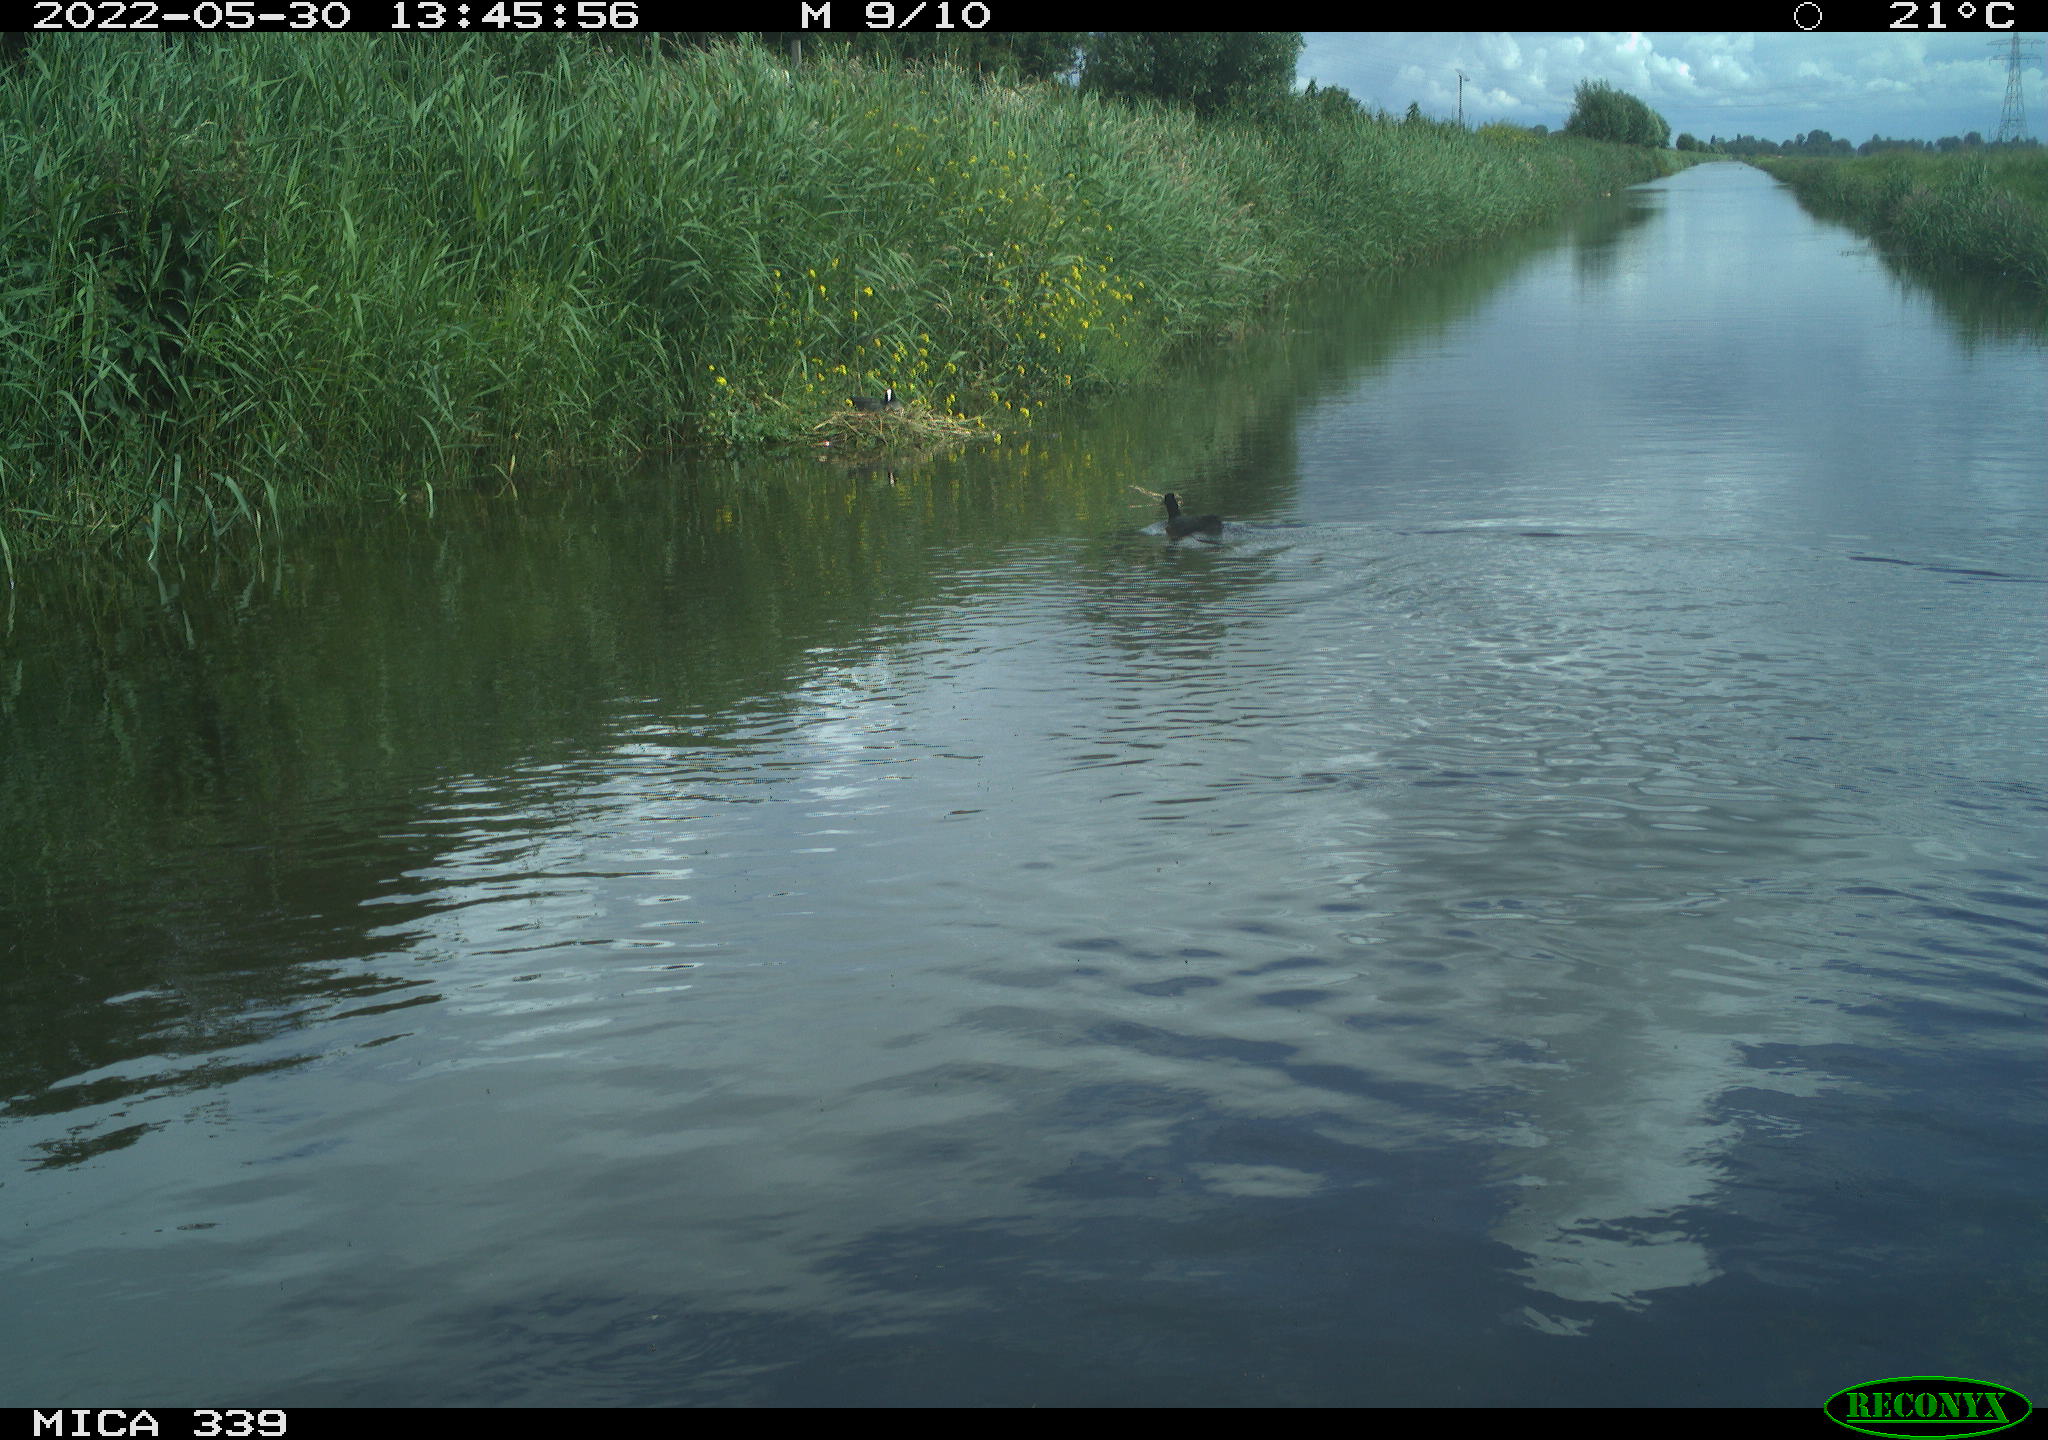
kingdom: Animalia
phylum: Chordata
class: Aves
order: Gruiformes
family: Rallidae
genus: Fulica
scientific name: Fulica atra
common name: Eurasian coot
